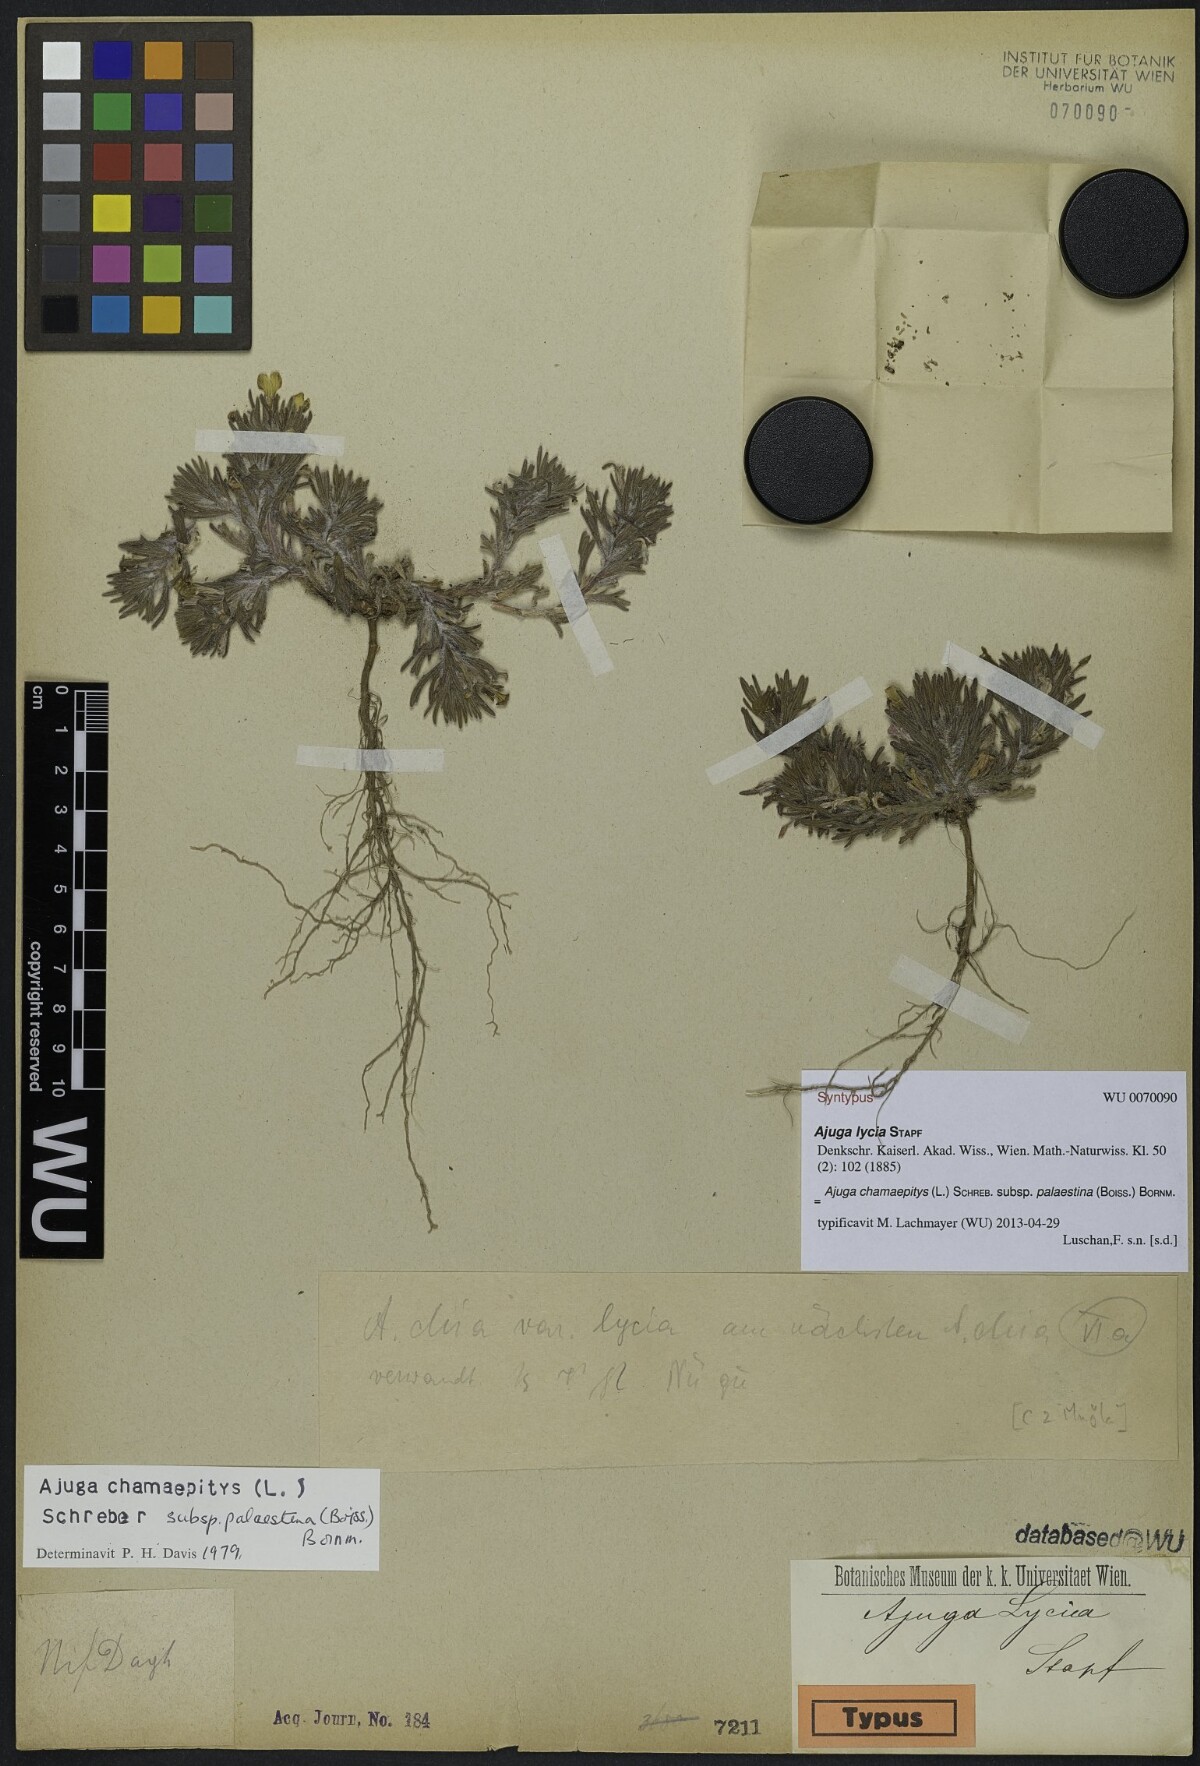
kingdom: Plantae
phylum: Tracheophyta
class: Magnoliopsida
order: Lamiales
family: Lamiaceae
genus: Ajuga
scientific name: Ajuga chamaepitys
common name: Ground-pine
